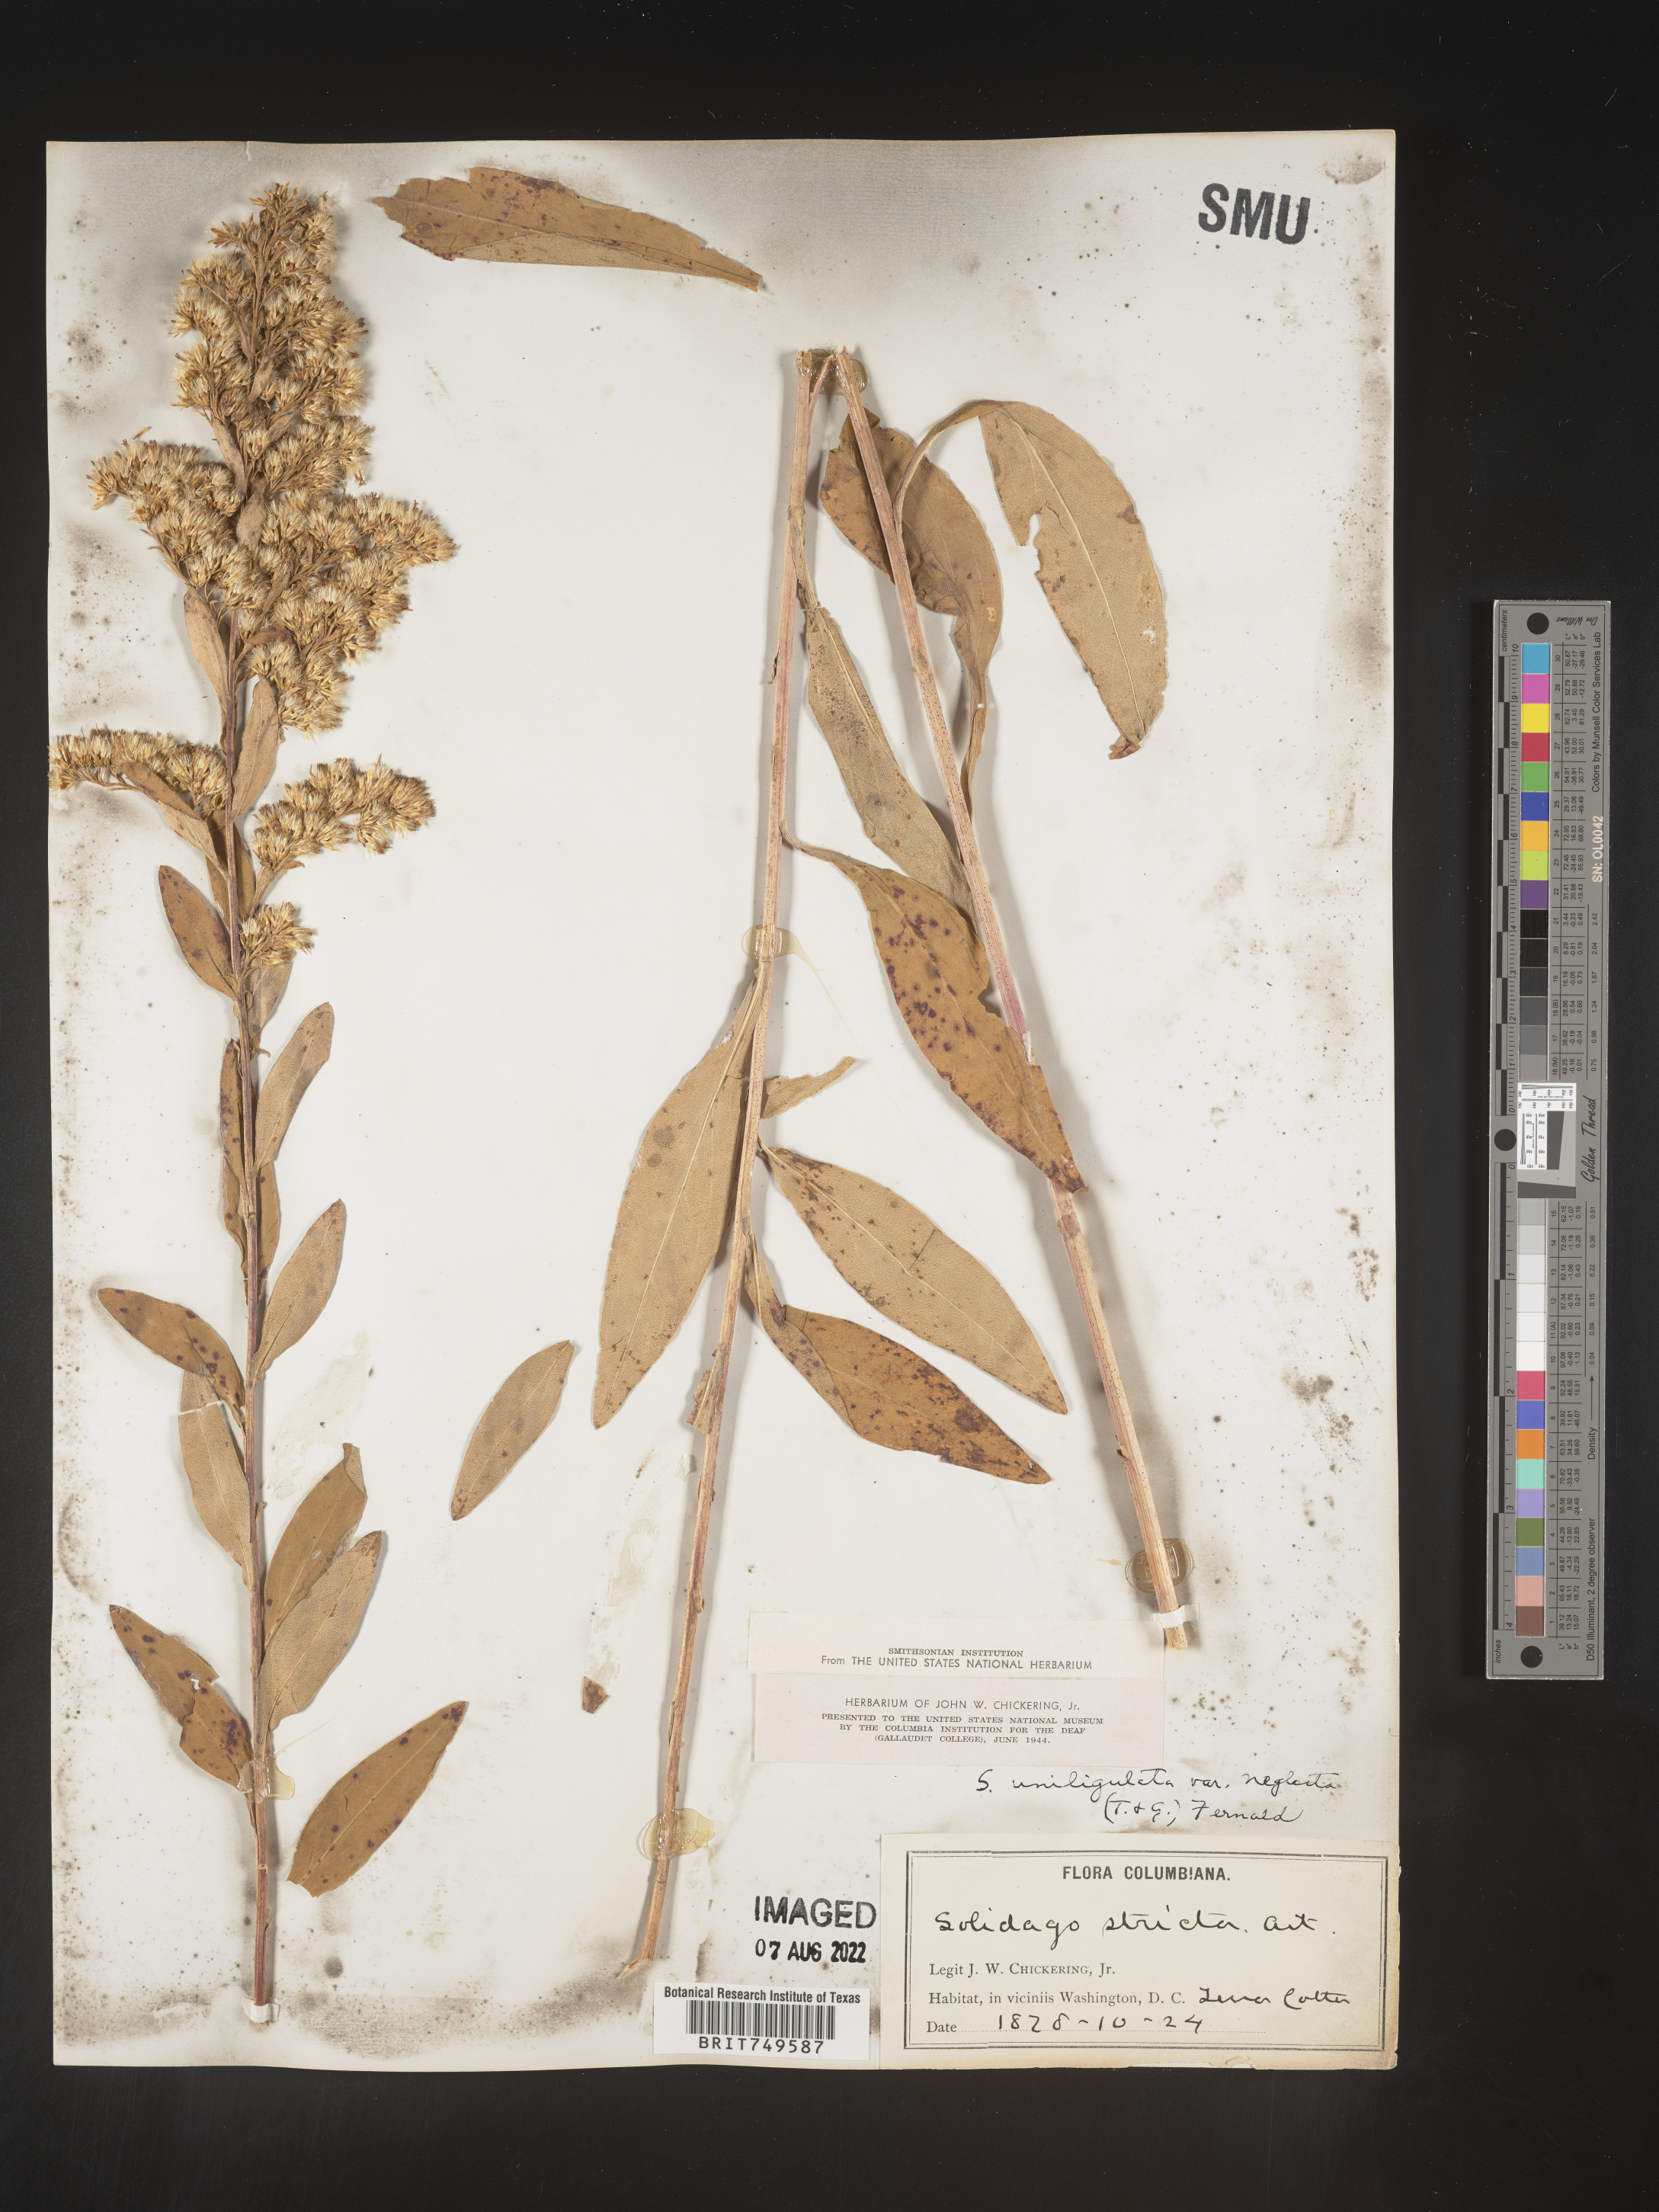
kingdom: Plantae
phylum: Tracheophyta
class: Magnoliopsida
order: Asterales
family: Asteraceae
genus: Solidago
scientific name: Solidago uliginosa
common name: Bog goldenrod
